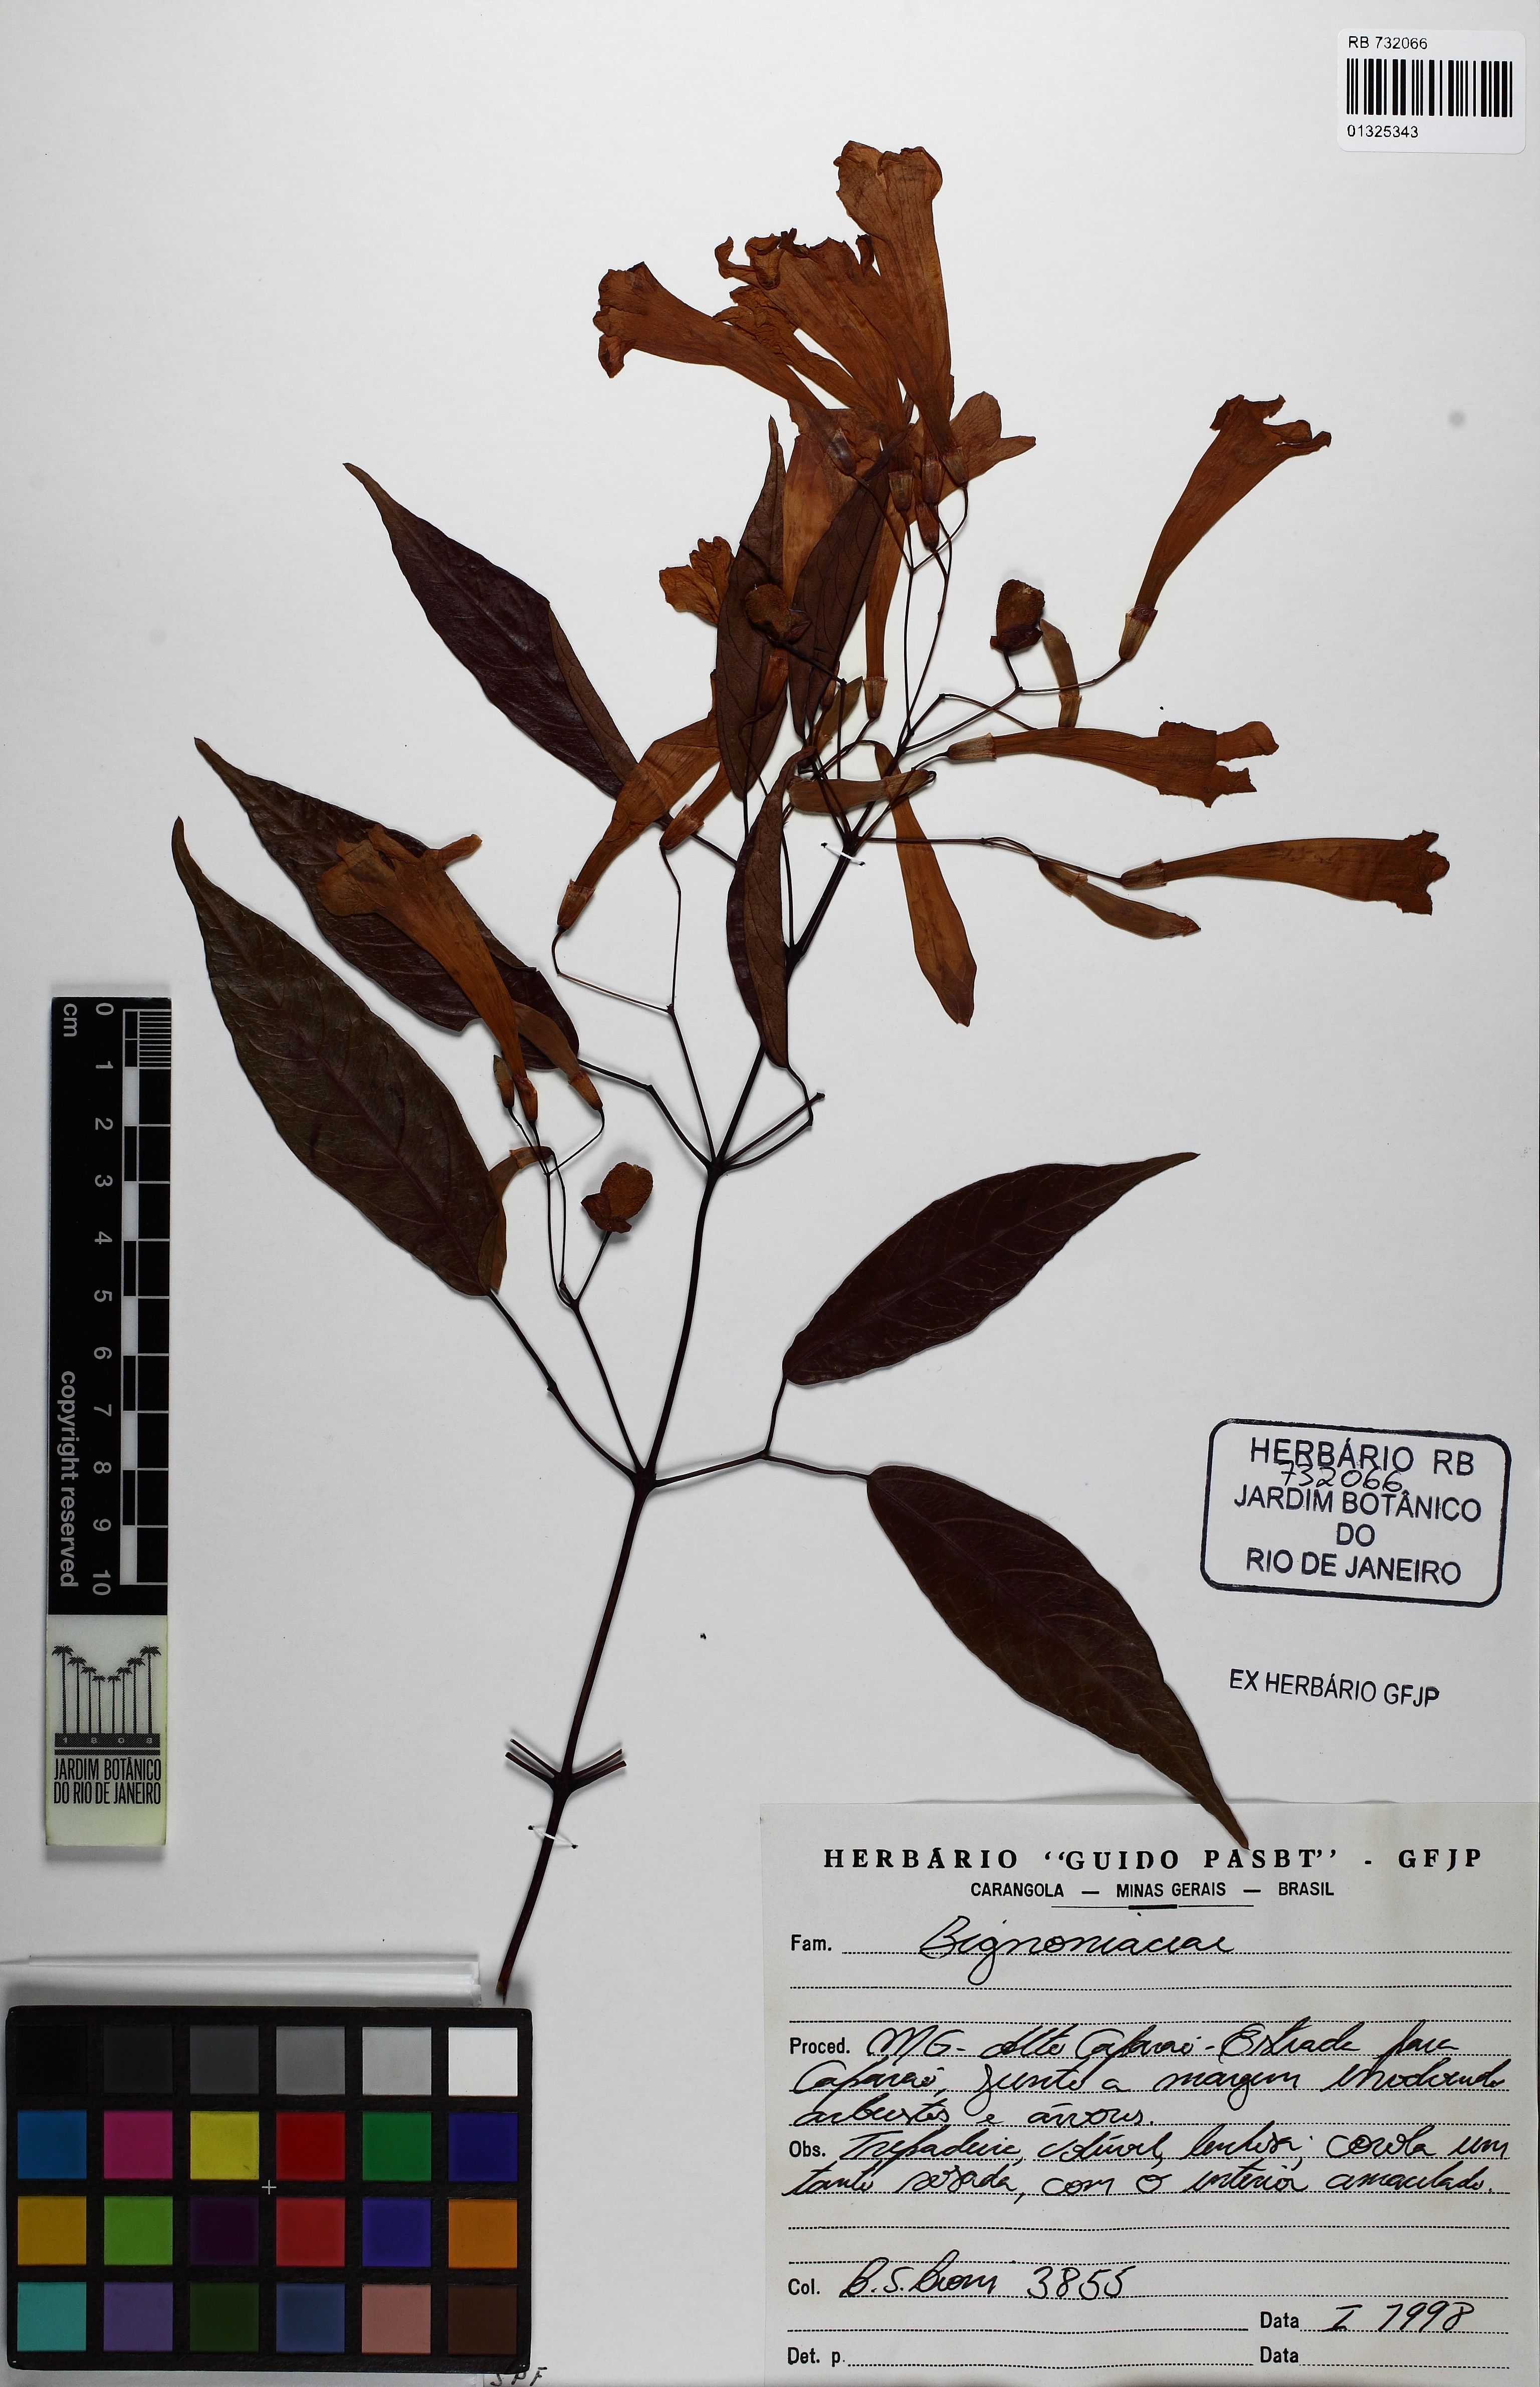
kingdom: Plantae
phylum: Tracheophyta
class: Magnoliopsida
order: Lamiales
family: Bignoniaceae
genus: Lundia
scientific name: Lundia nitidula
